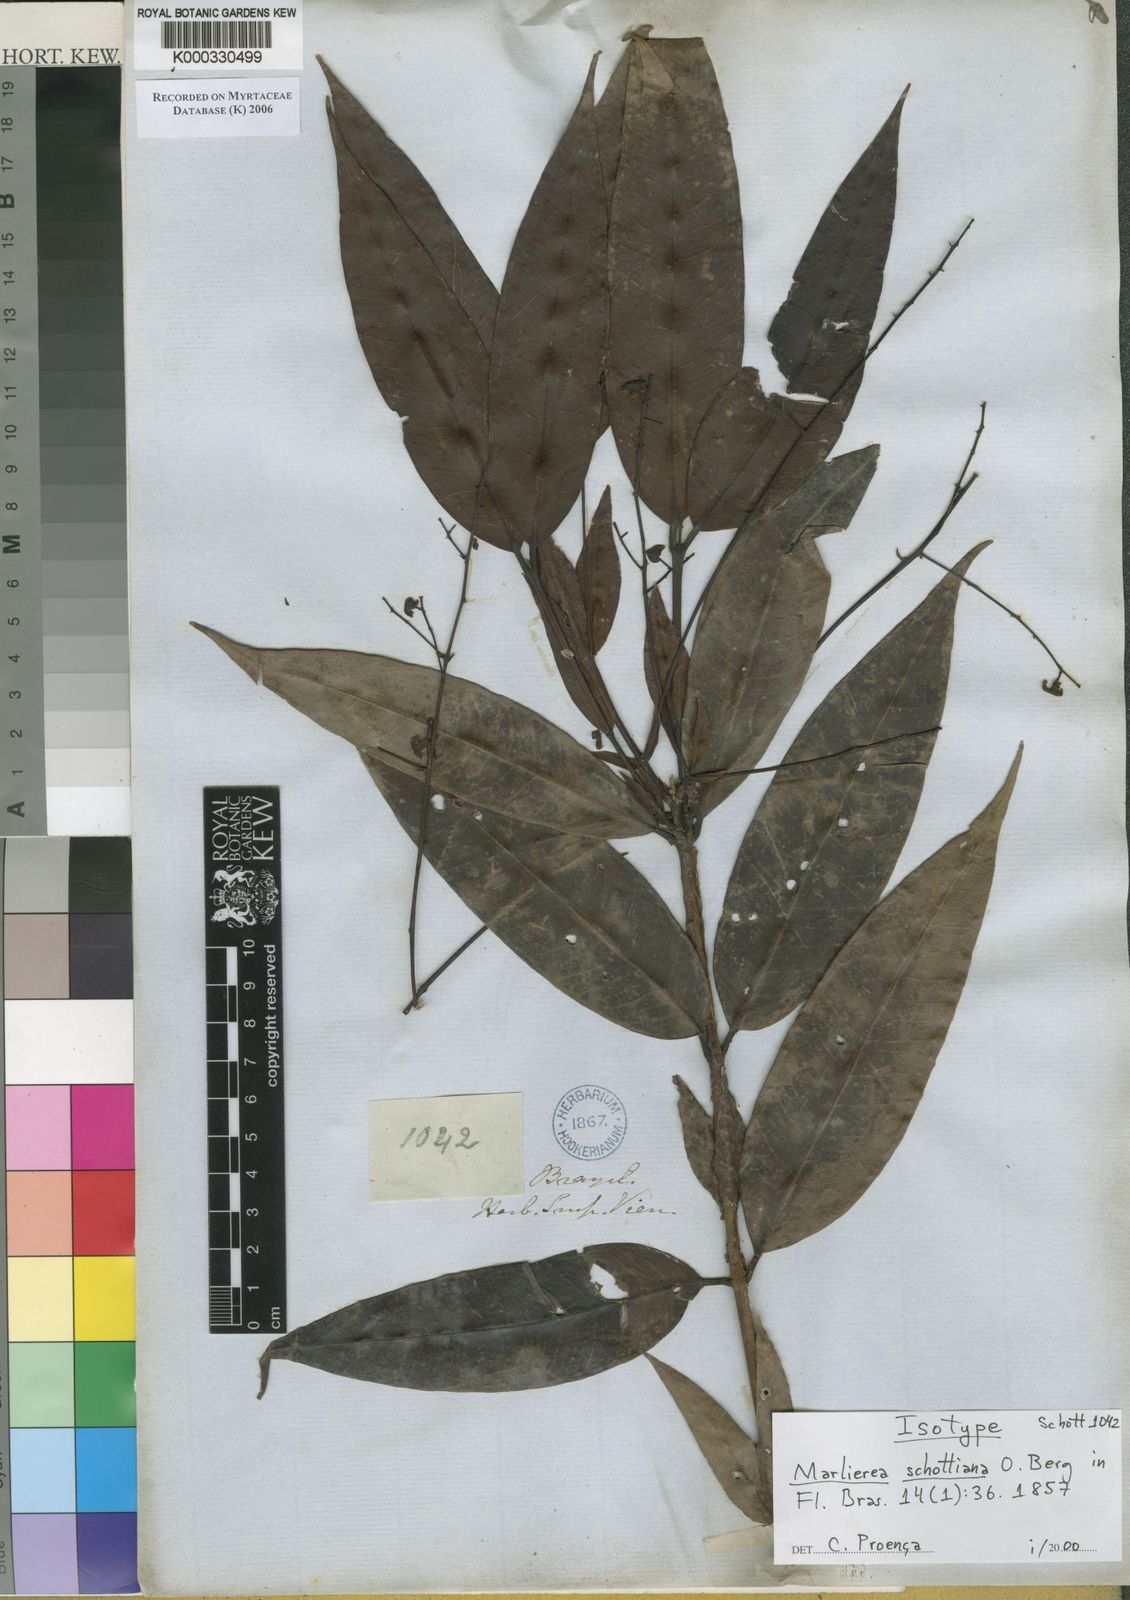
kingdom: Plantae
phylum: Tracheophyta
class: Magnoliopsida
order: Myrtales
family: Myrtaceae
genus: Myrcia
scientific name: Myrcia neoglabra
